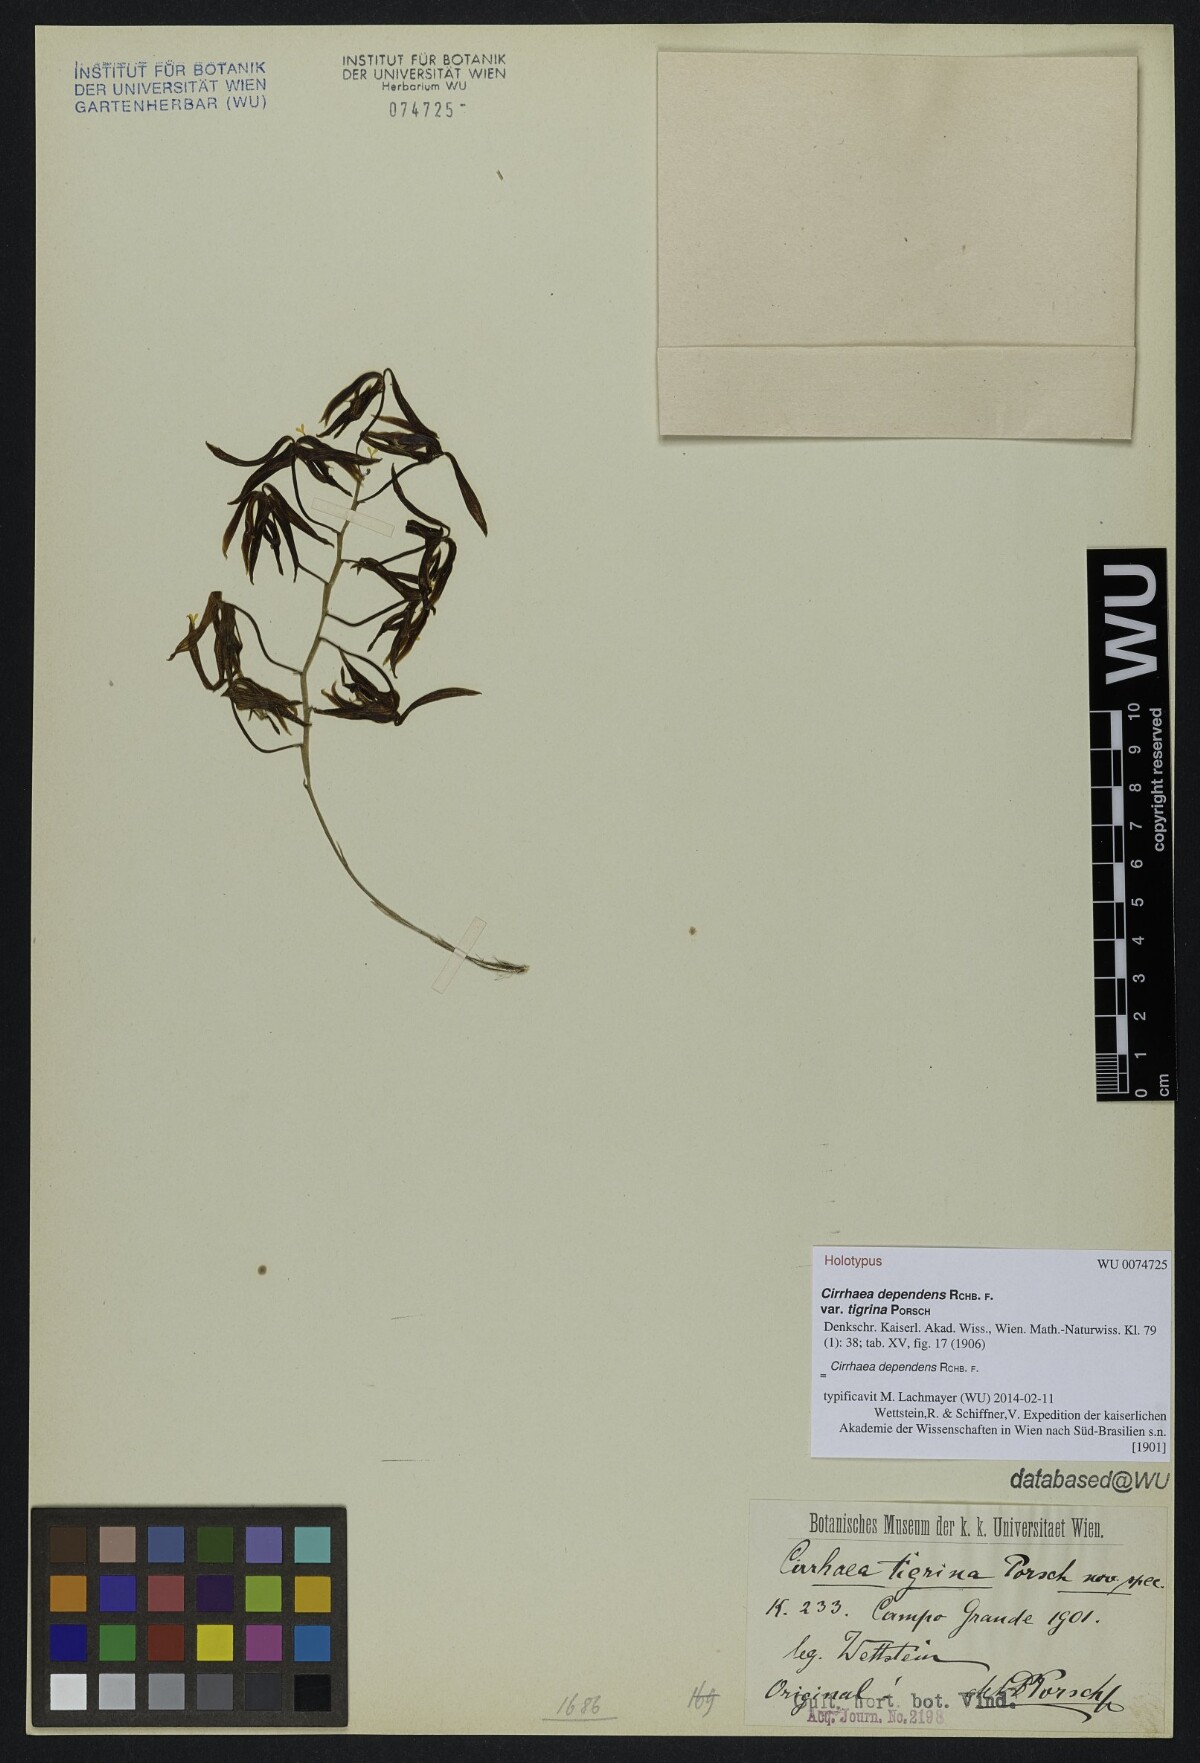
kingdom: Plantae
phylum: Tracheophyta
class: Liliopsida
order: Asparagales
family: Orchidaceae
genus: Cirrhaea
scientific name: Cirrhaea dependens
